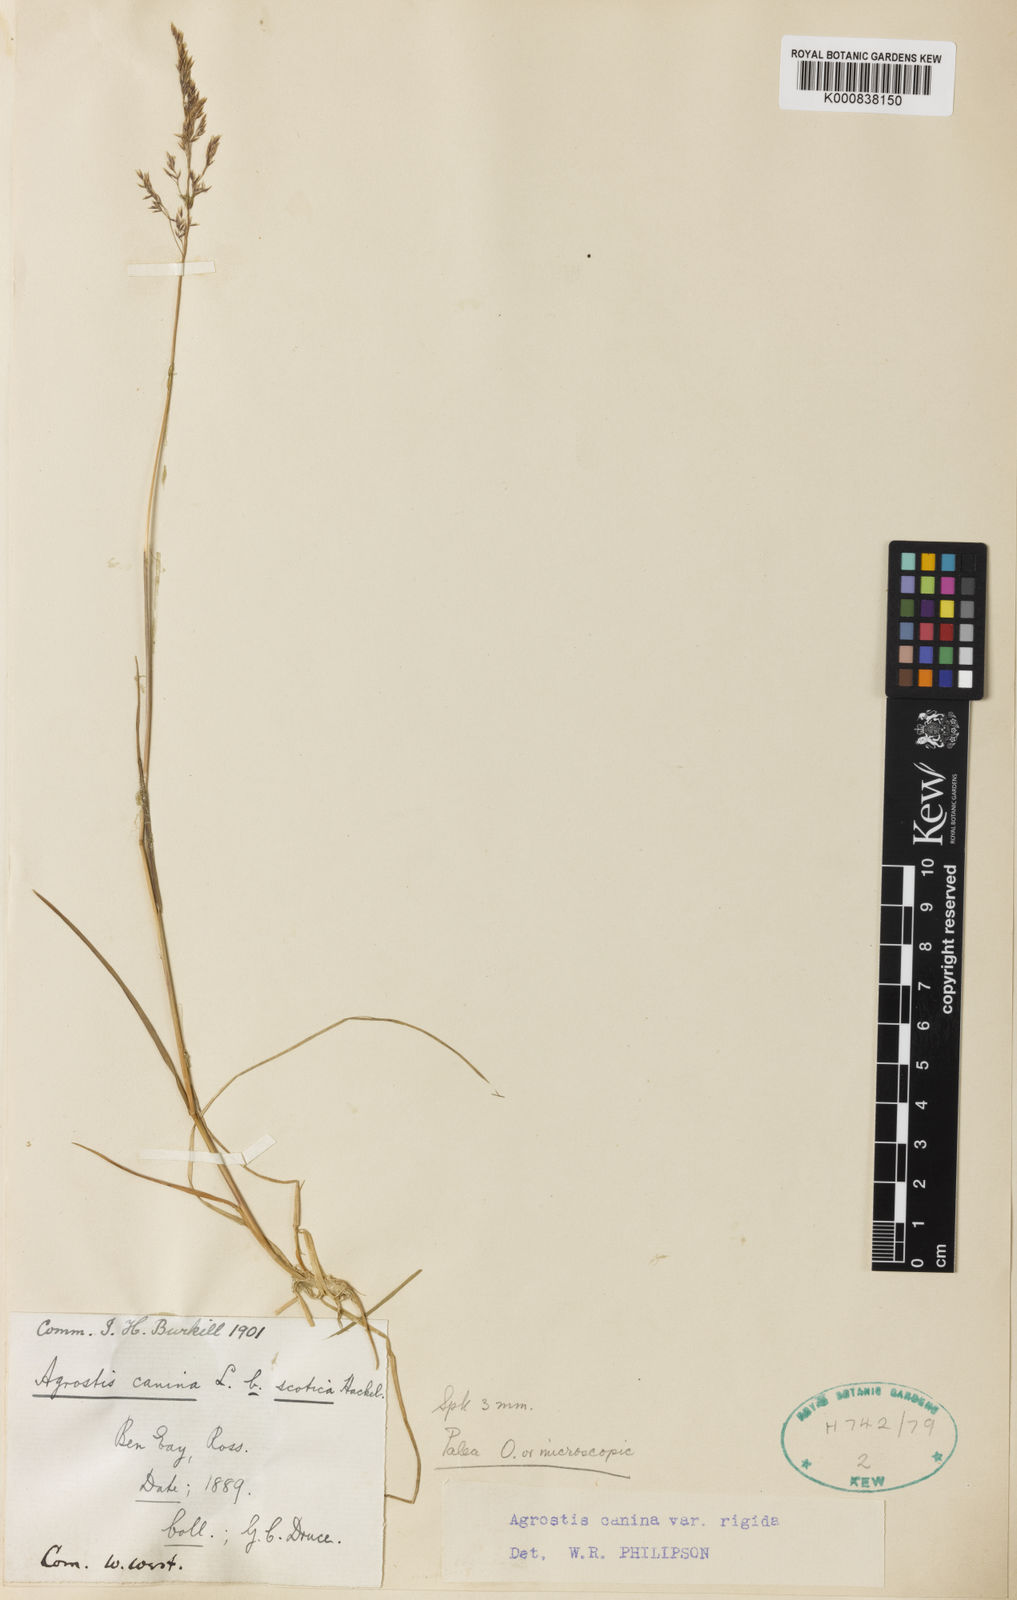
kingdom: Plantae
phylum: Tracheophyta
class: Liliopsida
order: Poales
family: Poaceae
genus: Agrostis
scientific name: Agrostis vinealis
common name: Brown bent
